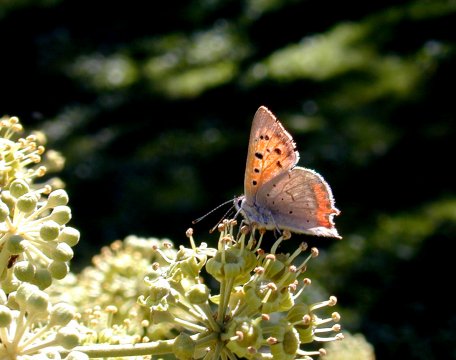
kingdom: Animalia
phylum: Arthropoda
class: Insecta
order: Lepidoptera
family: Lycaenidae
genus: Lycaena
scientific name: Lycaena phlaeas
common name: American Copper
